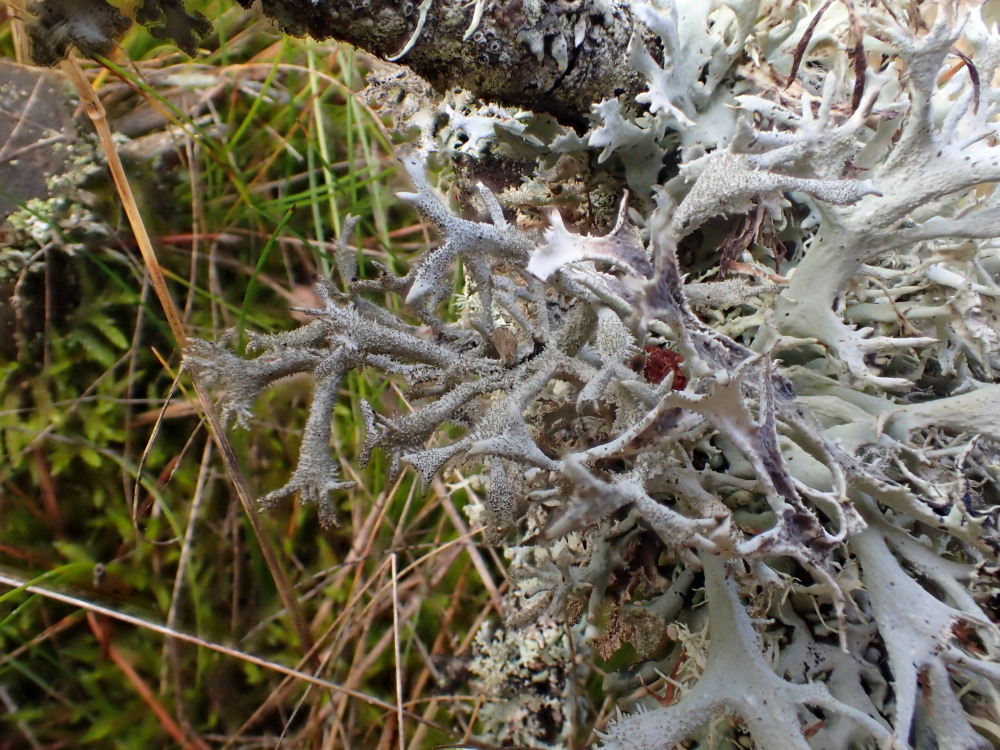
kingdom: Fungi
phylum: Ascomycota
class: Lecanoromycetes
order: Lecanorales
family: Parmeliaceae
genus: Pseudevernia
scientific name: Pseudevernia furfuracea
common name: grå fyrrelav
